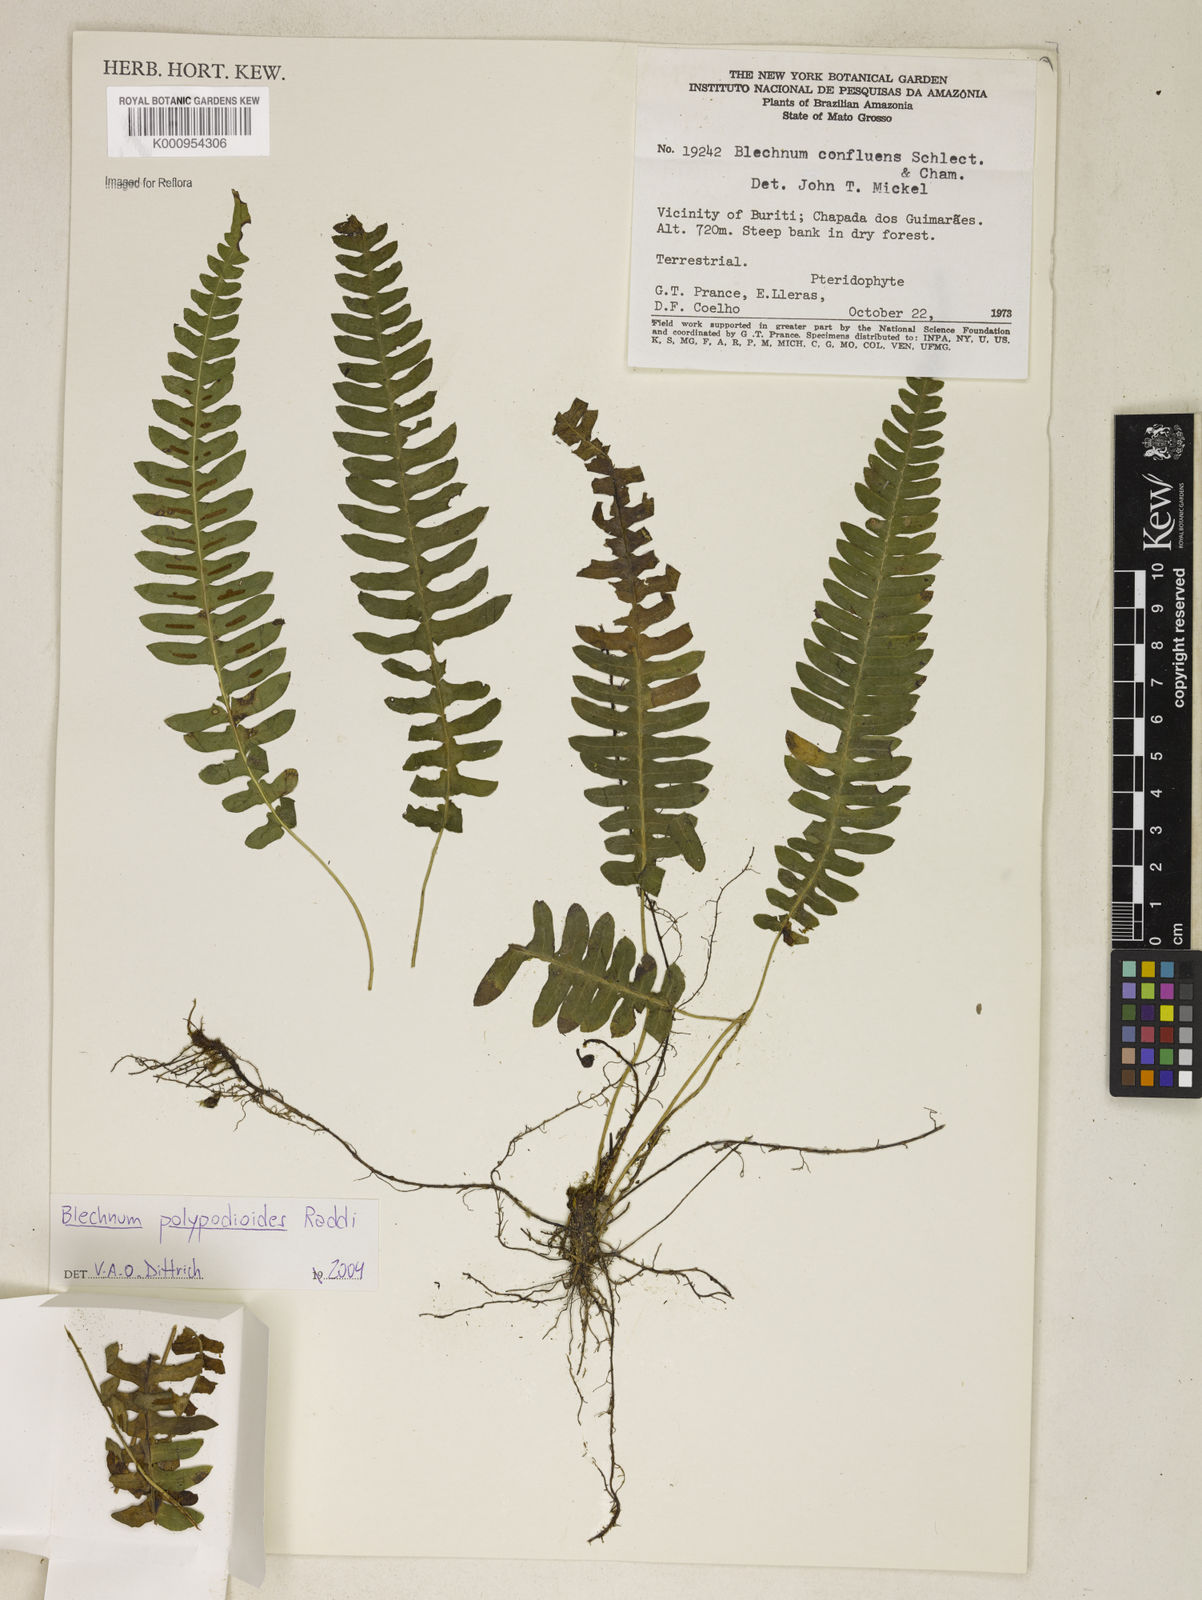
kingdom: Plantae
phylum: Tracheophyta
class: Polypodiopsida
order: Polypodiales
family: Blechnaceae
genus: Blechnum
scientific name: Blechnum confluens
